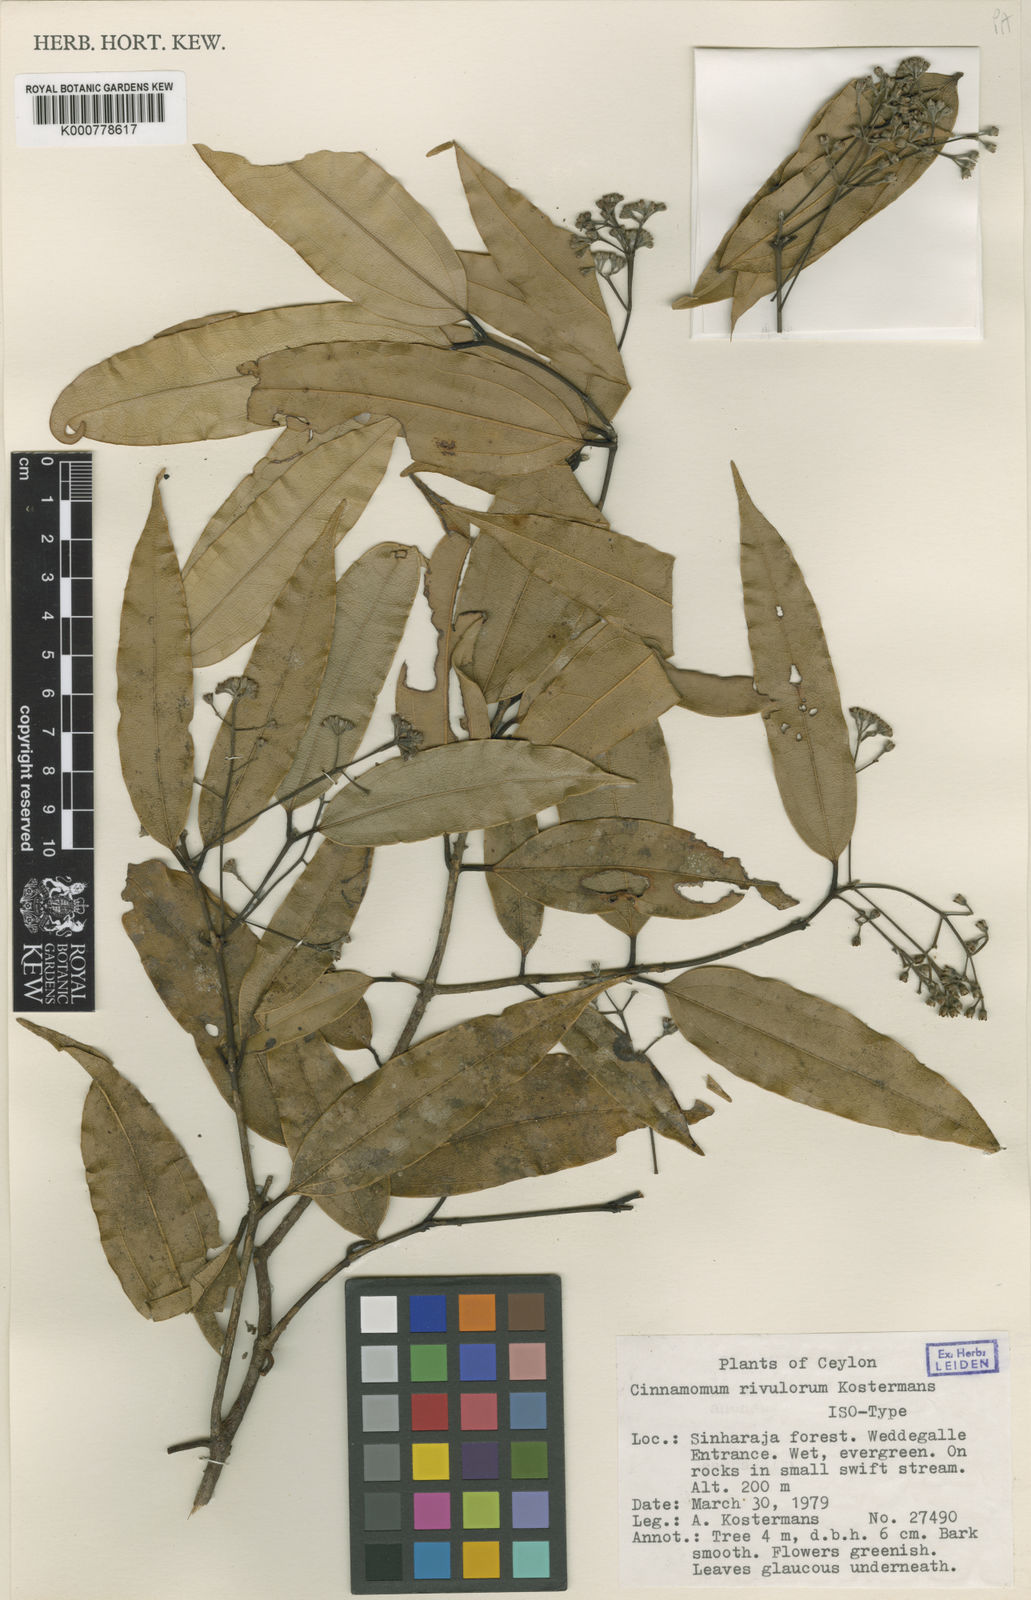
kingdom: Plantae
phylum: Tracheophyta
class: Magnoliopsida
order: Laurales
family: Lauraceae
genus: Cinnamomum
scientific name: Cinnamomum rivulorum
